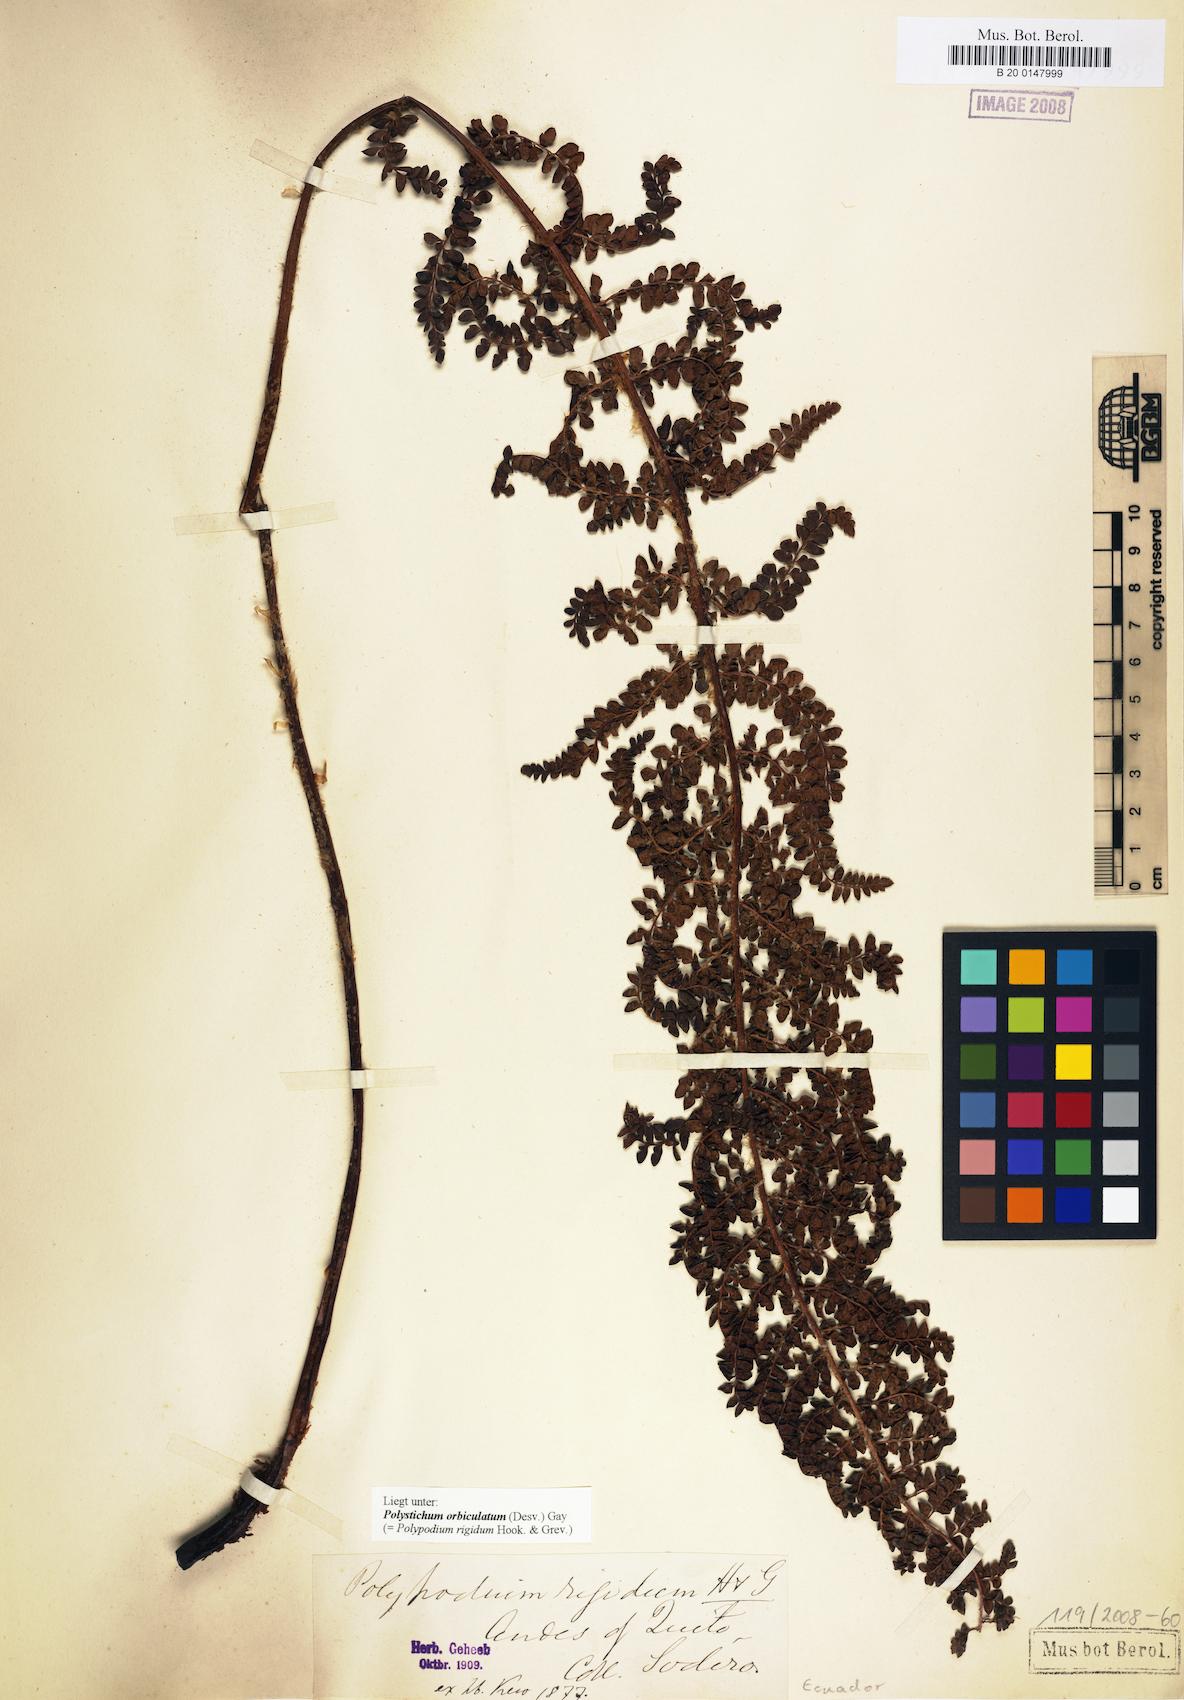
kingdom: Plantae
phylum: Tracheophyta
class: Polypodiopsida
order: Polypodiales
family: Dryopteridaceae
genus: Polystichum
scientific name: Polystichum orbiculatum
